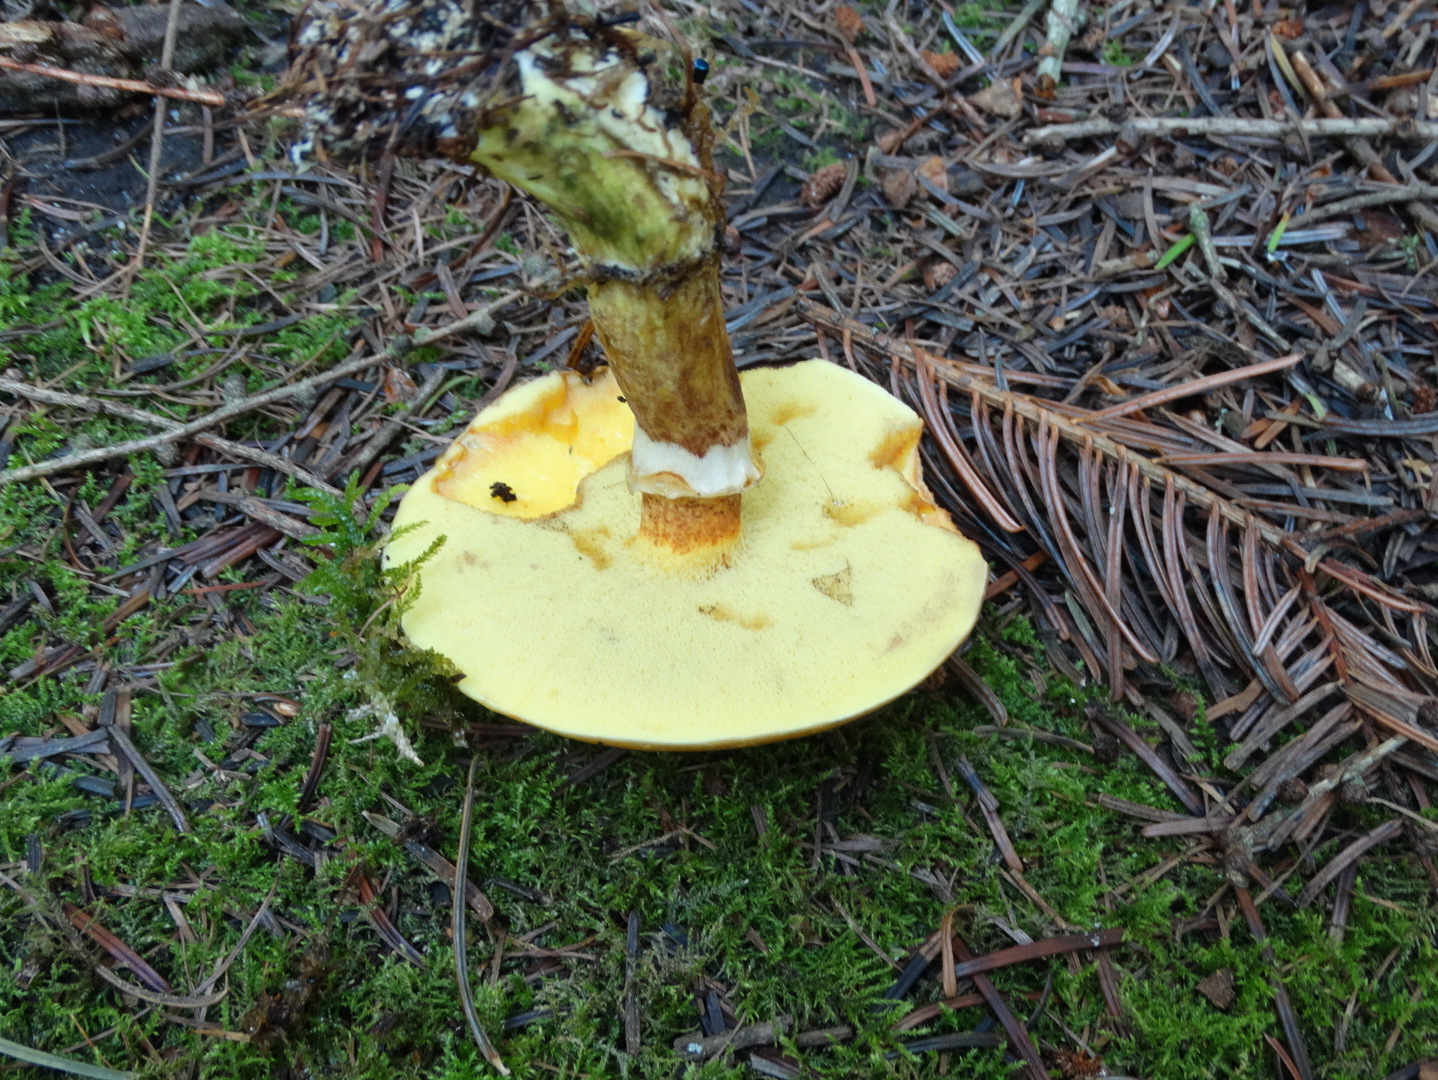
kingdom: Fungi
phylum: Basidiomycota
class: Agaricomycetes
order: Boletales
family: Suillaceae
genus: Suillus
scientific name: Suillus grevillei
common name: lærke-slimrørhat
